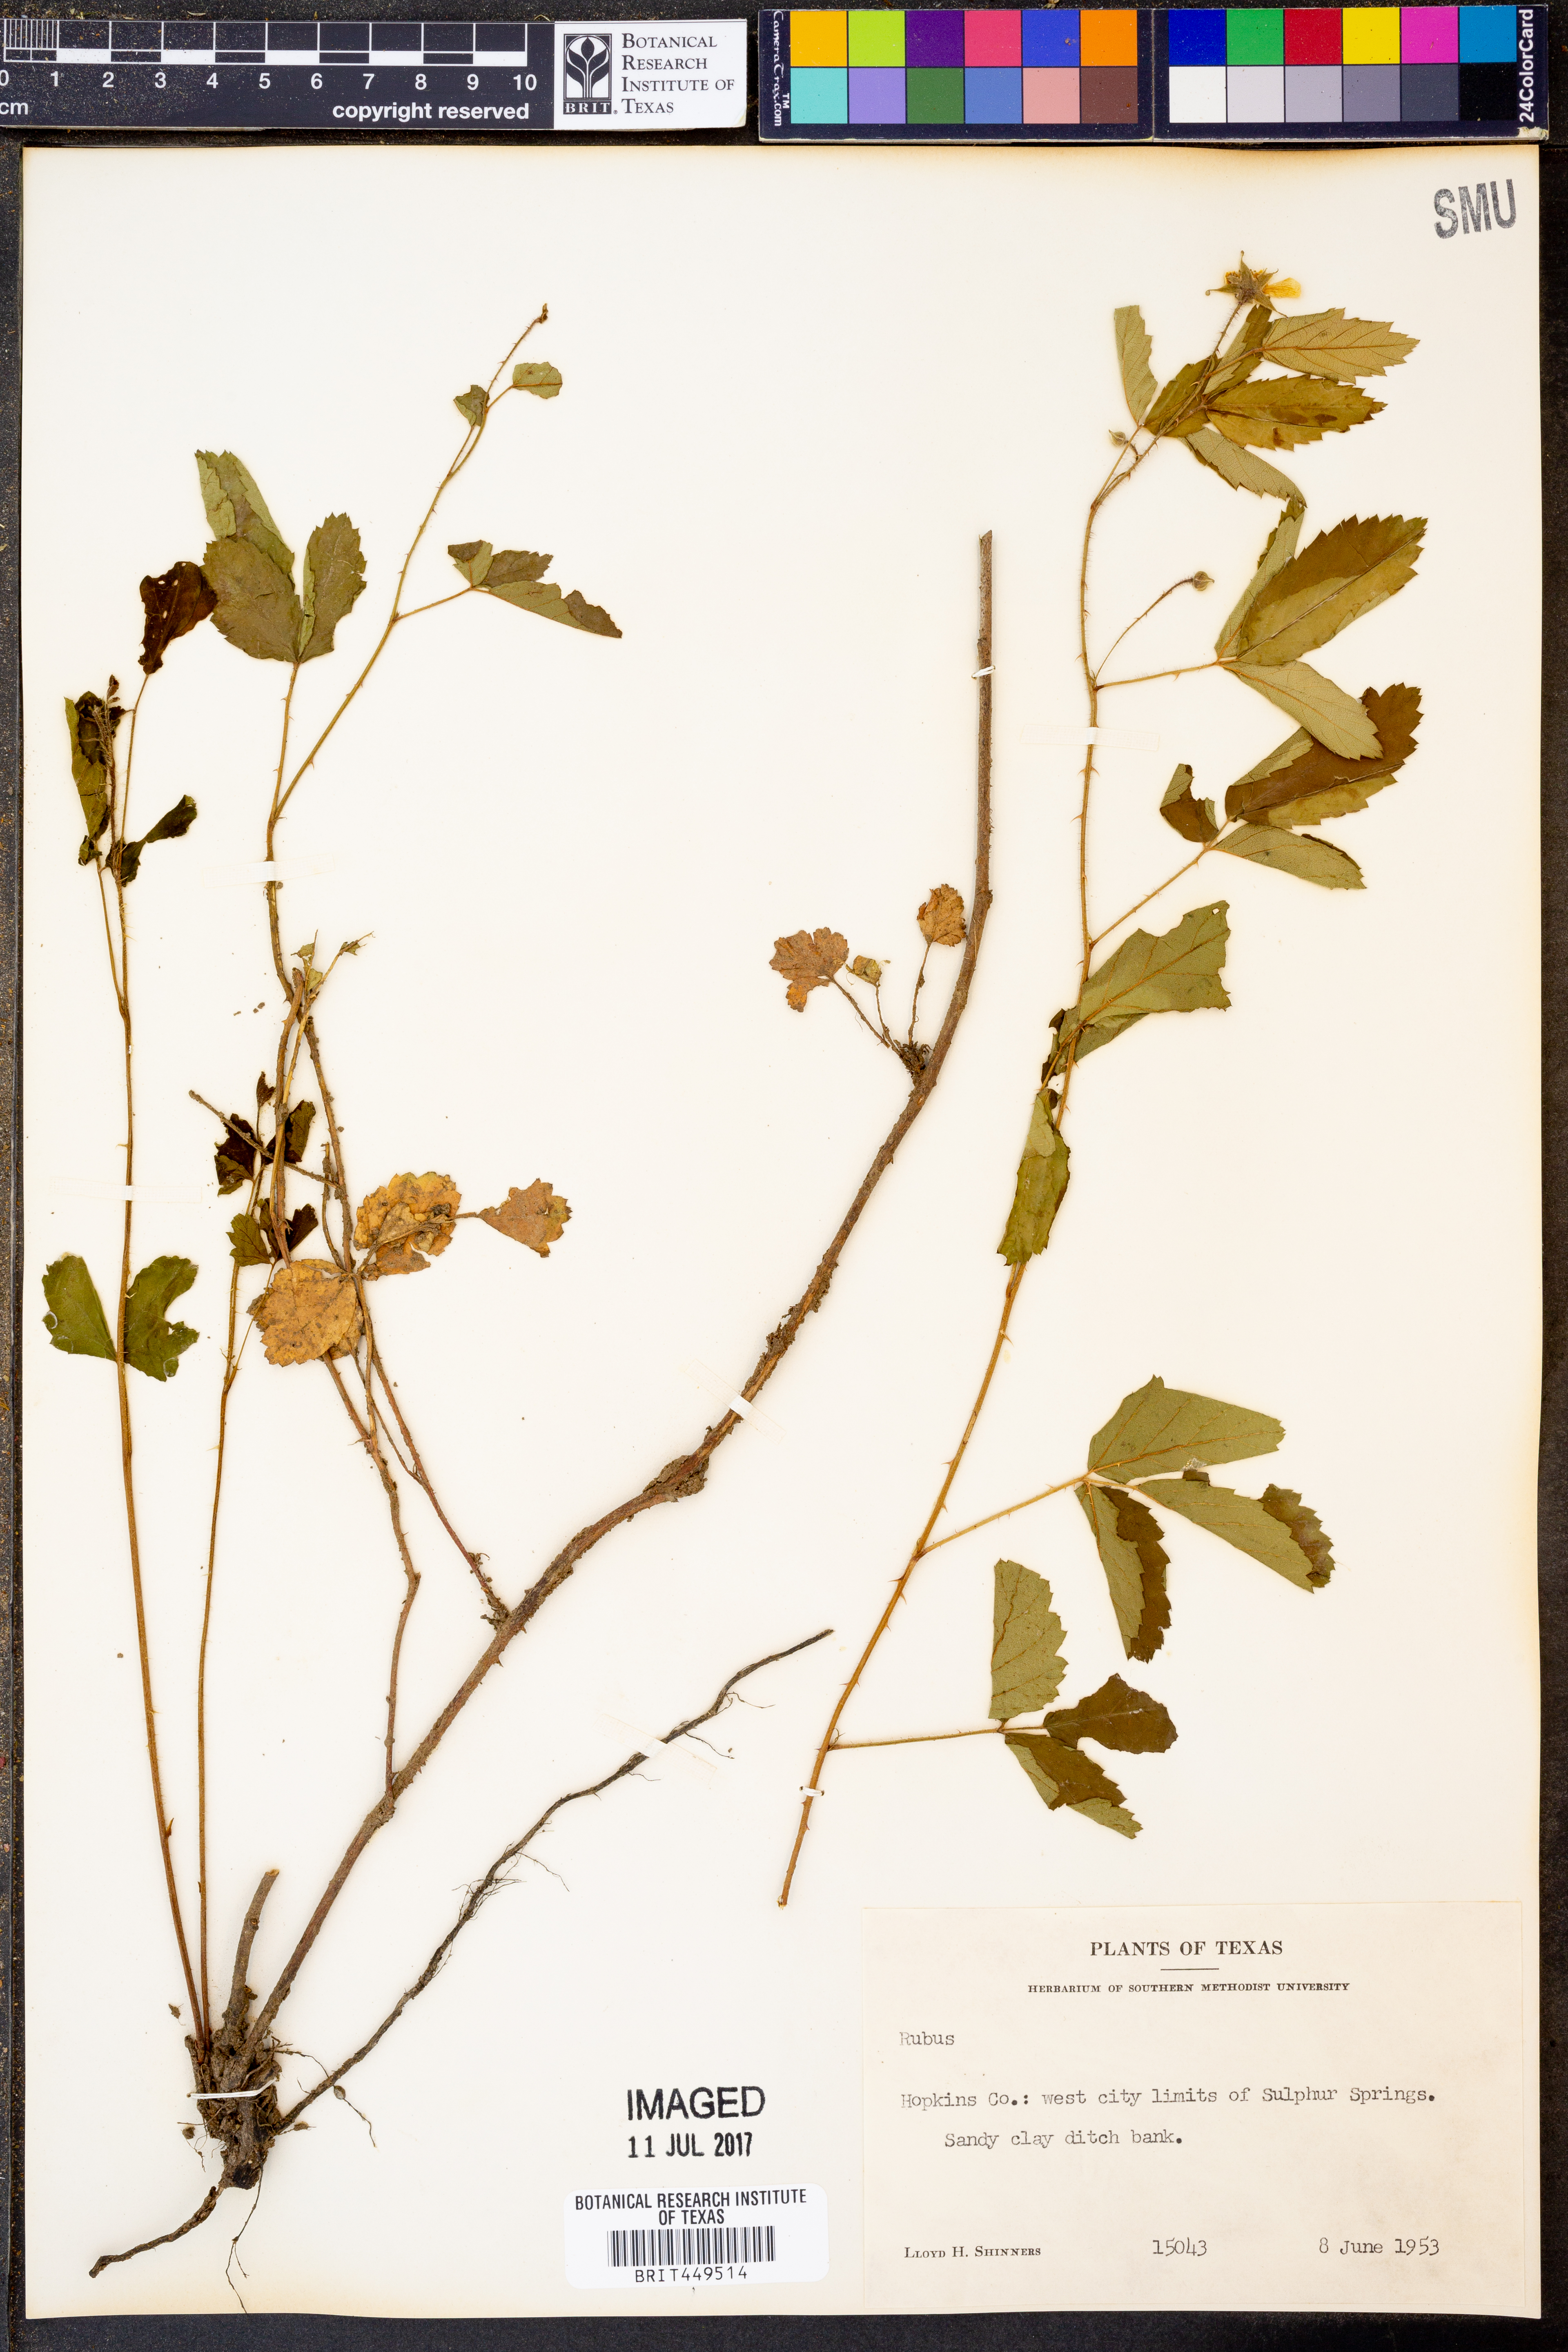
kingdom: Plantae
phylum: Tracheophyta
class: Magnoliopsida
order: Rosales
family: Rosaceae
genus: Rubus
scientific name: Rubus
